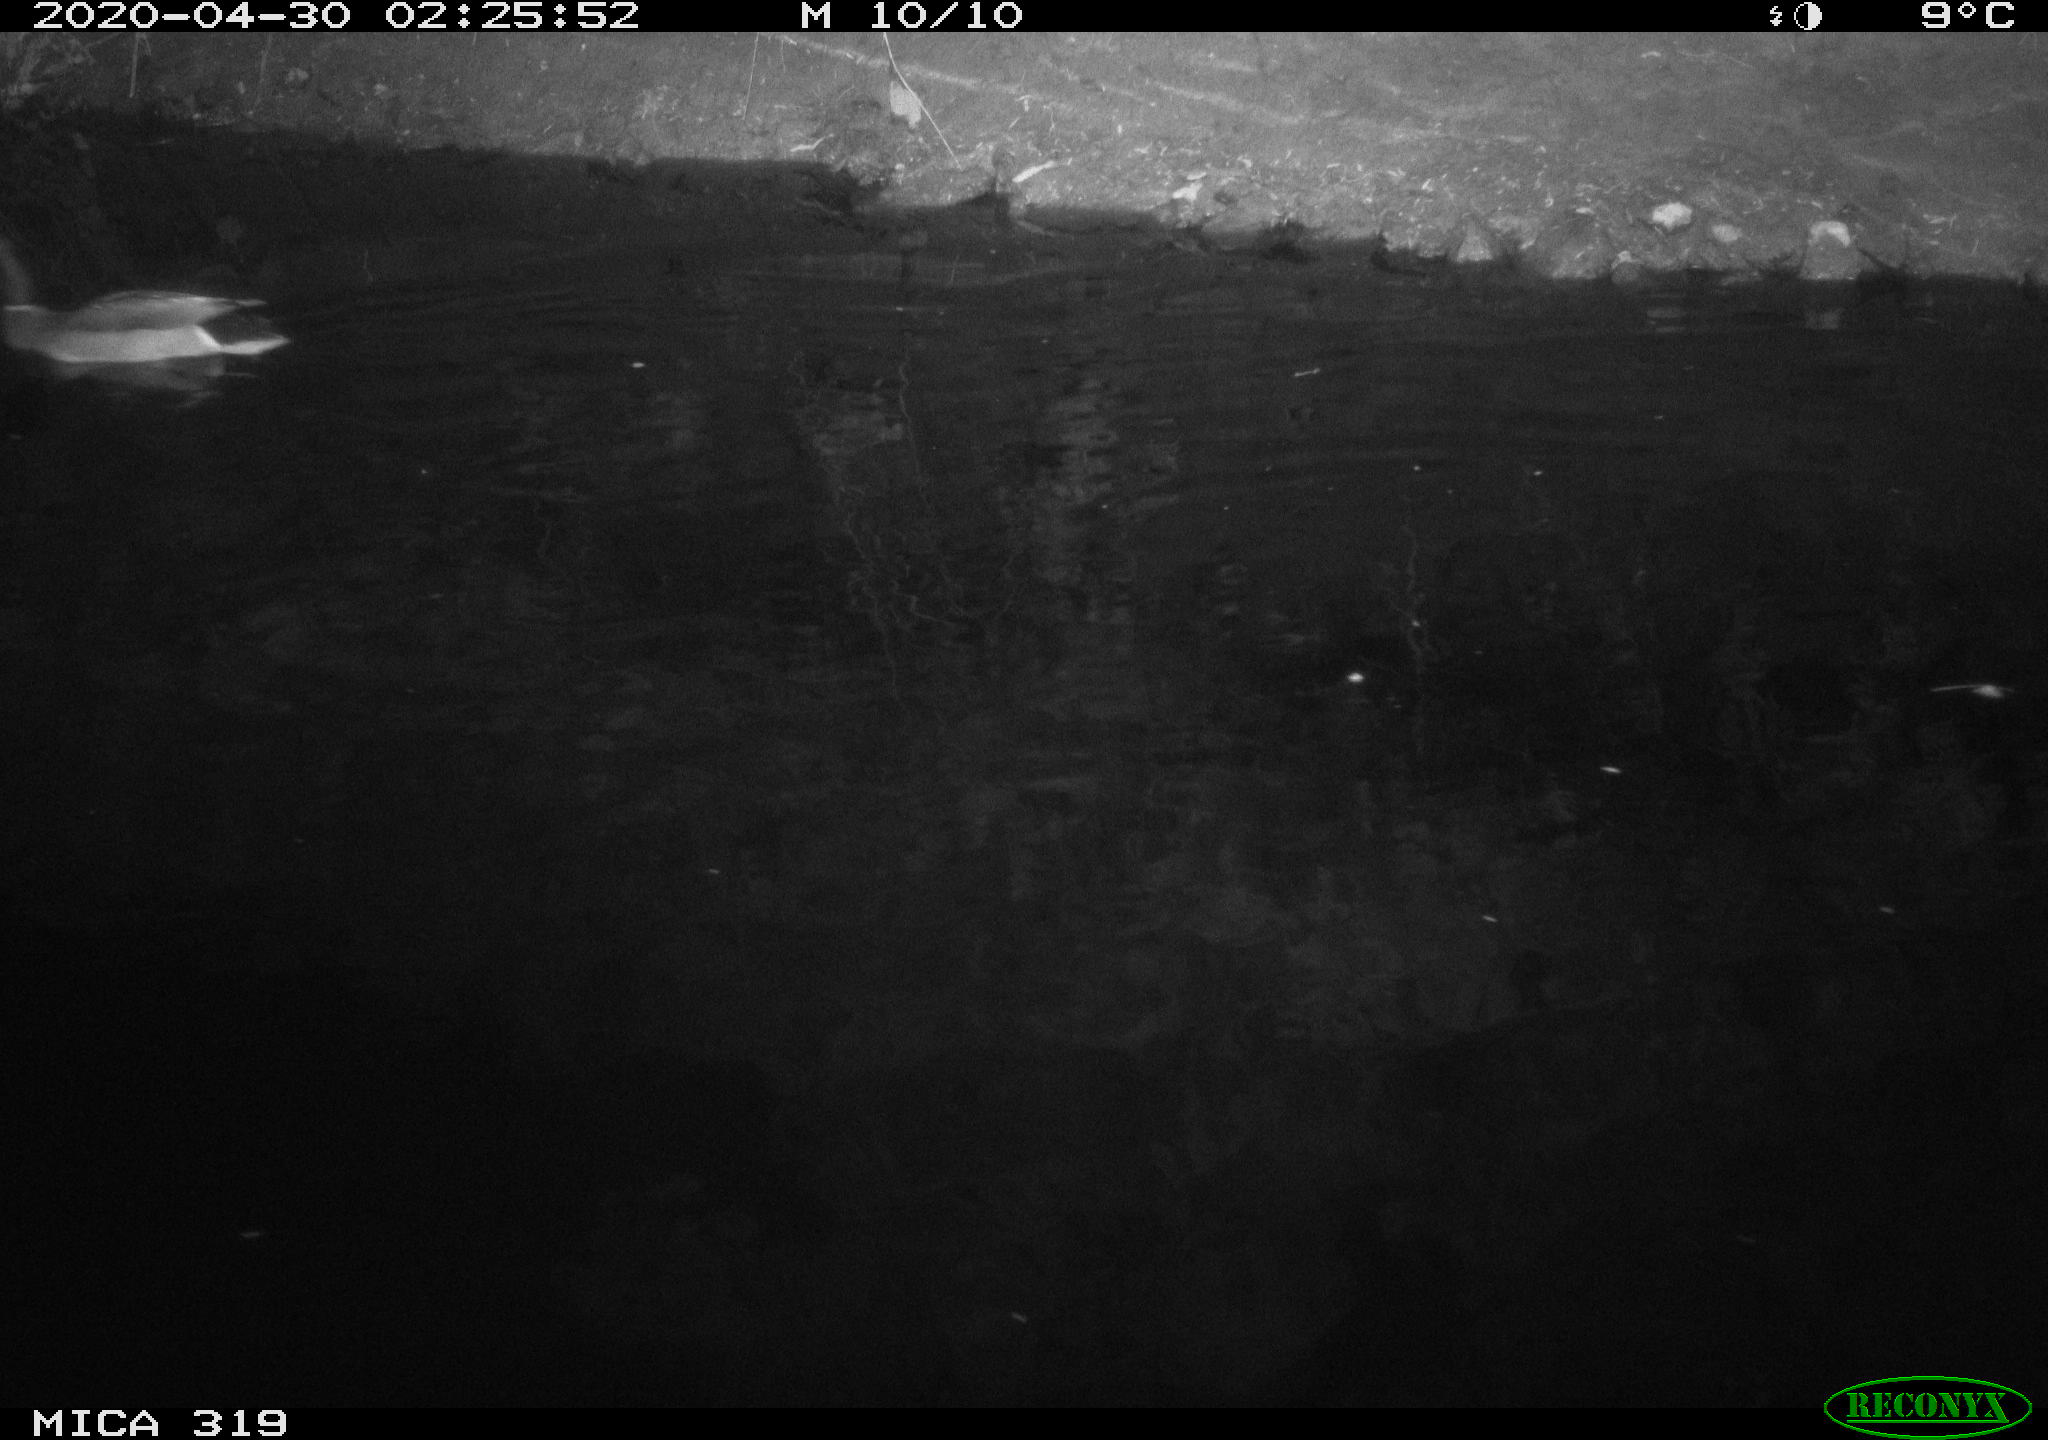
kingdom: Animalia
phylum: Chordata
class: Aves
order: Anseriformes
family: Anatidae
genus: Anas
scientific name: Anas platyrhynchos
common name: Mallard
